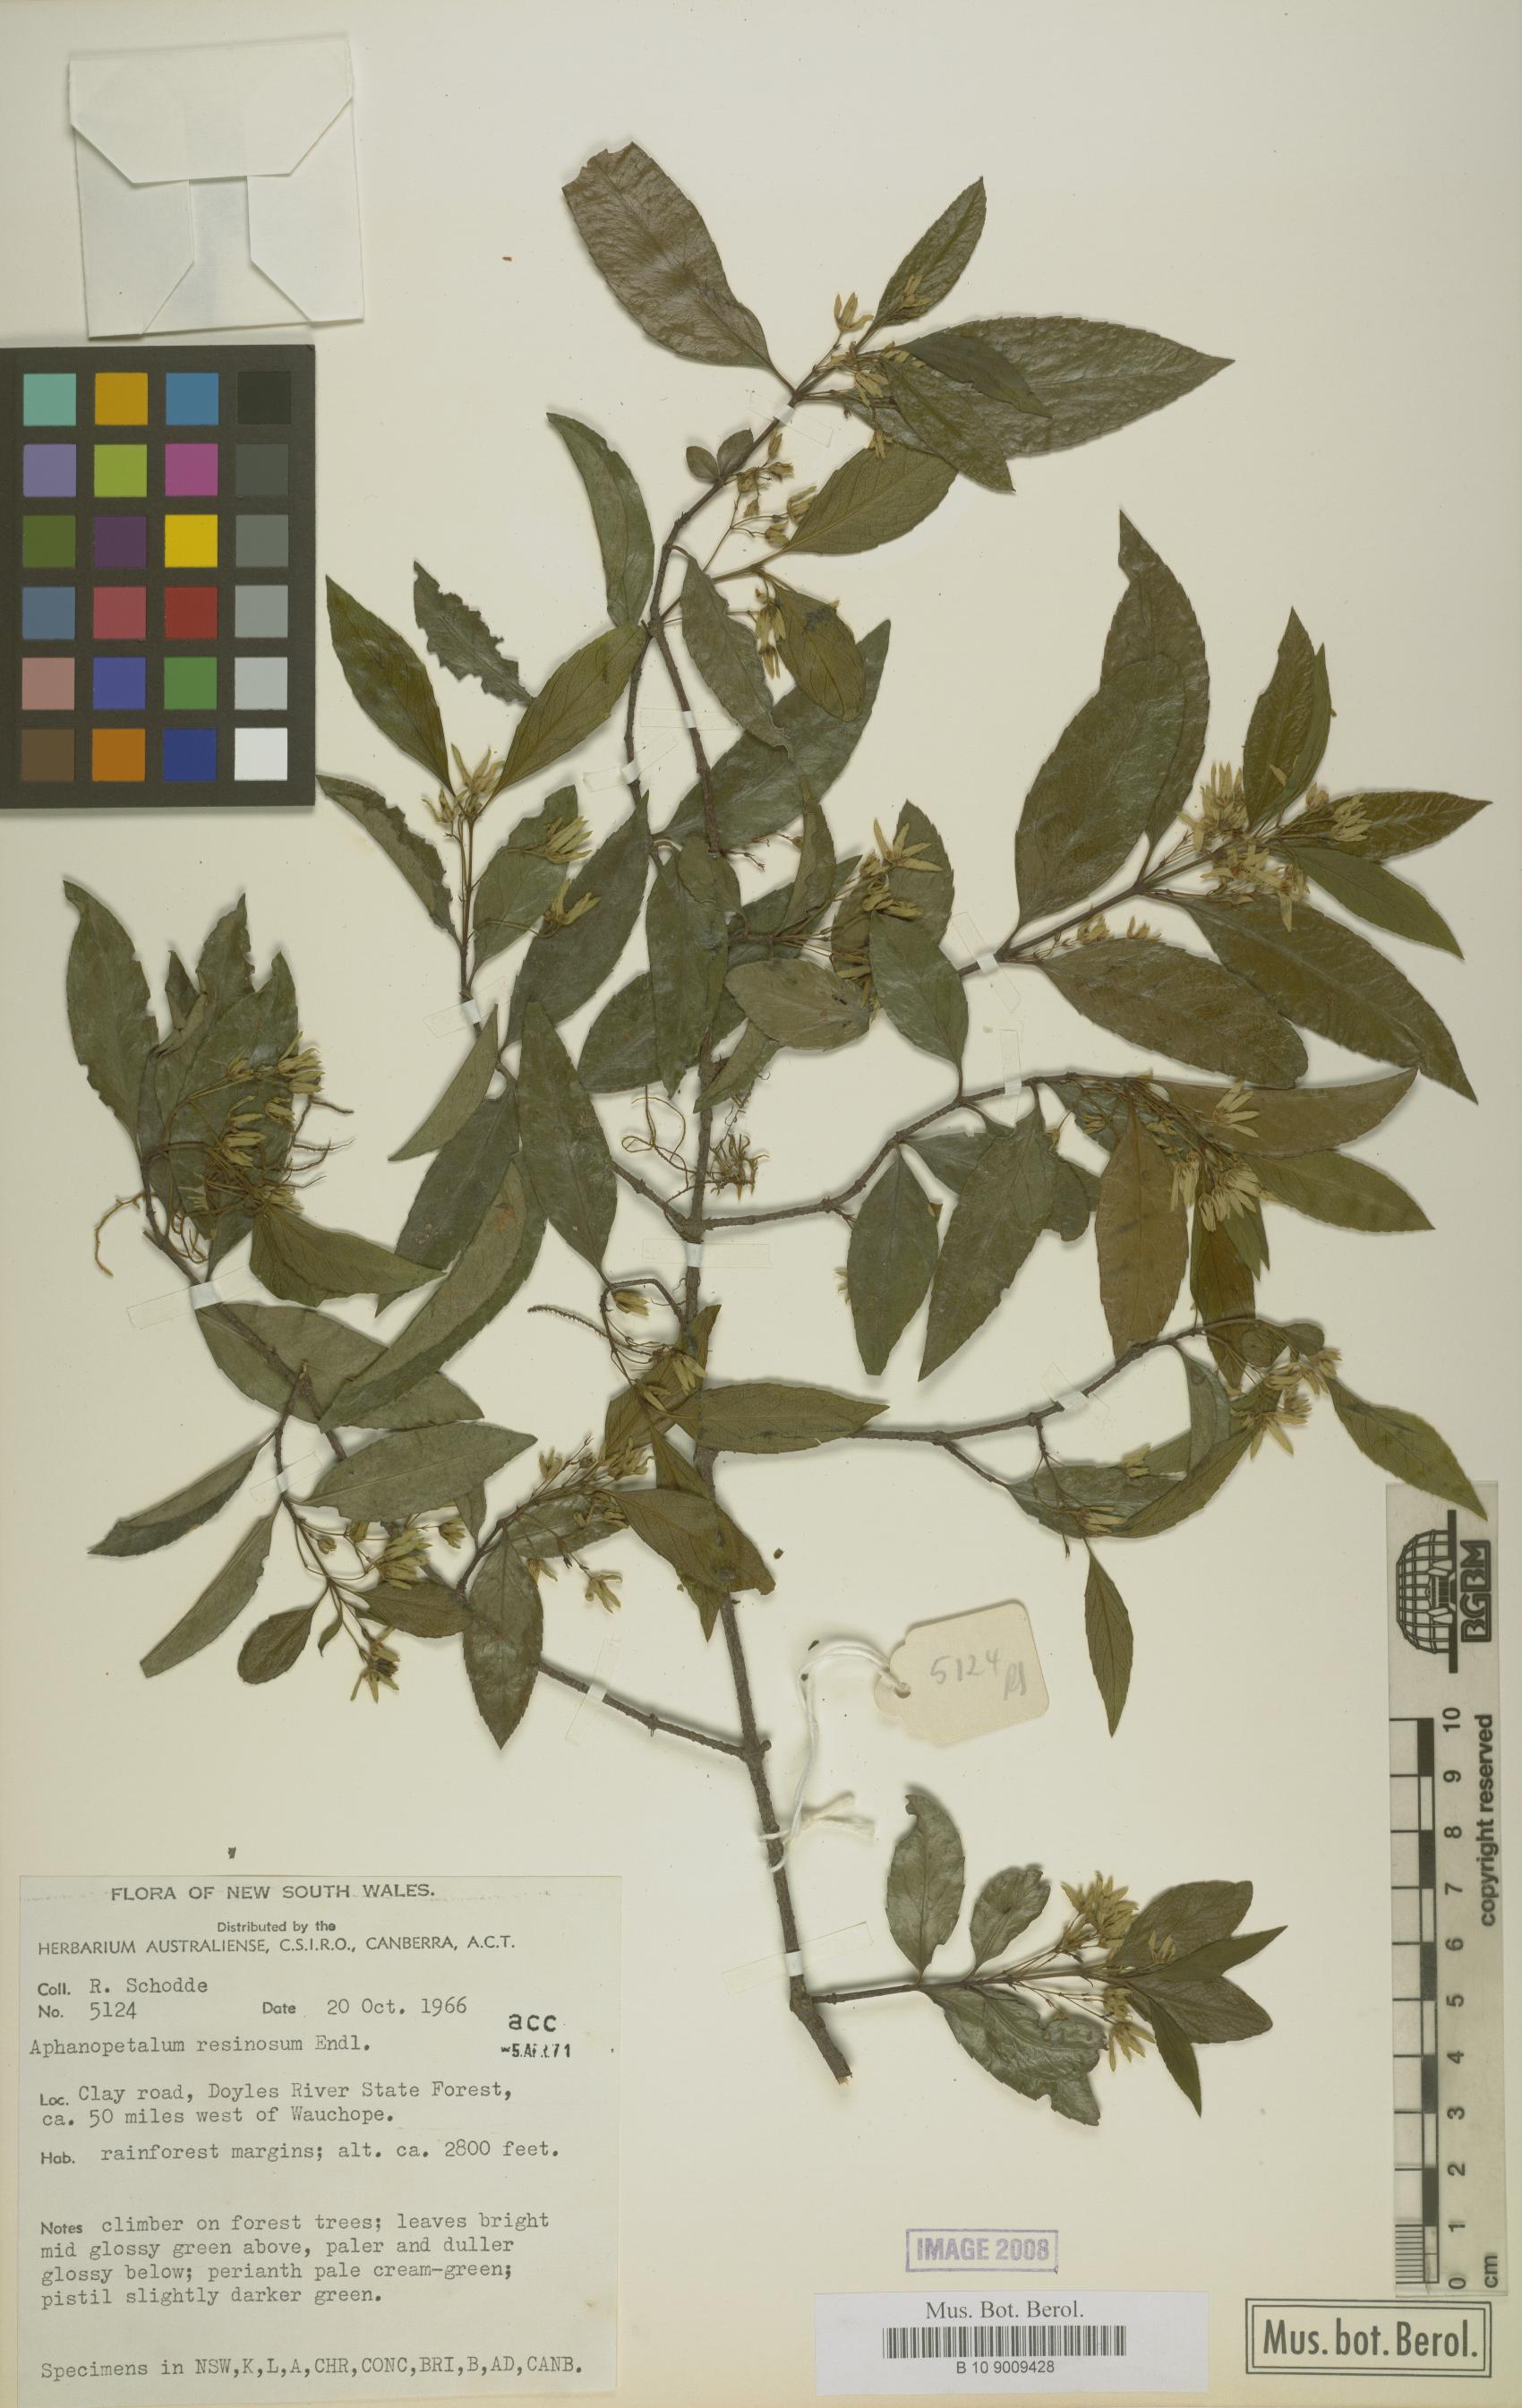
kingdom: Plantae
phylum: Tracheophyta
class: Magnoliopsida
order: Saxifragales
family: Aphanopetalaceae
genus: Aphanopetalum
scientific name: Aphanopetalum resinosum
